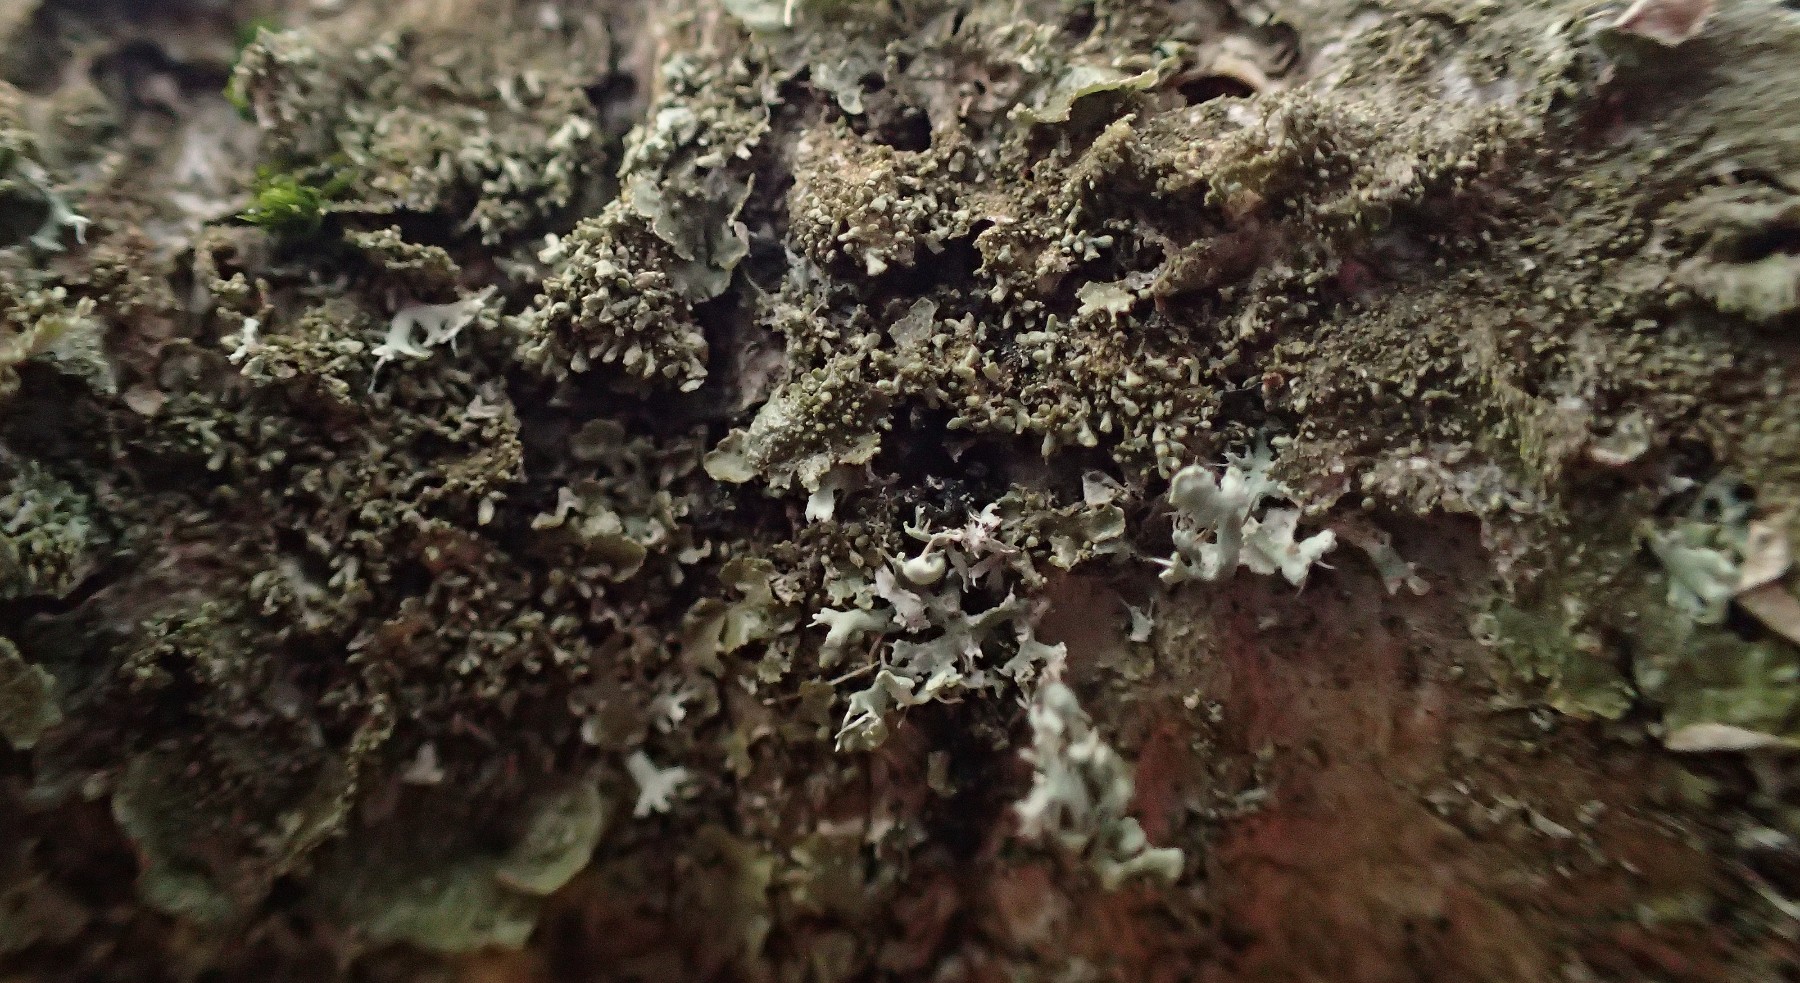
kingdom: Fungi
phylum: Ascomycota
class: Lecanoromycetes
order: Lecanorales
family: Parmeliaceae
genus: Melanohalea
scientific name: Melanohalea exasperatula
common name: kølle-skållav
